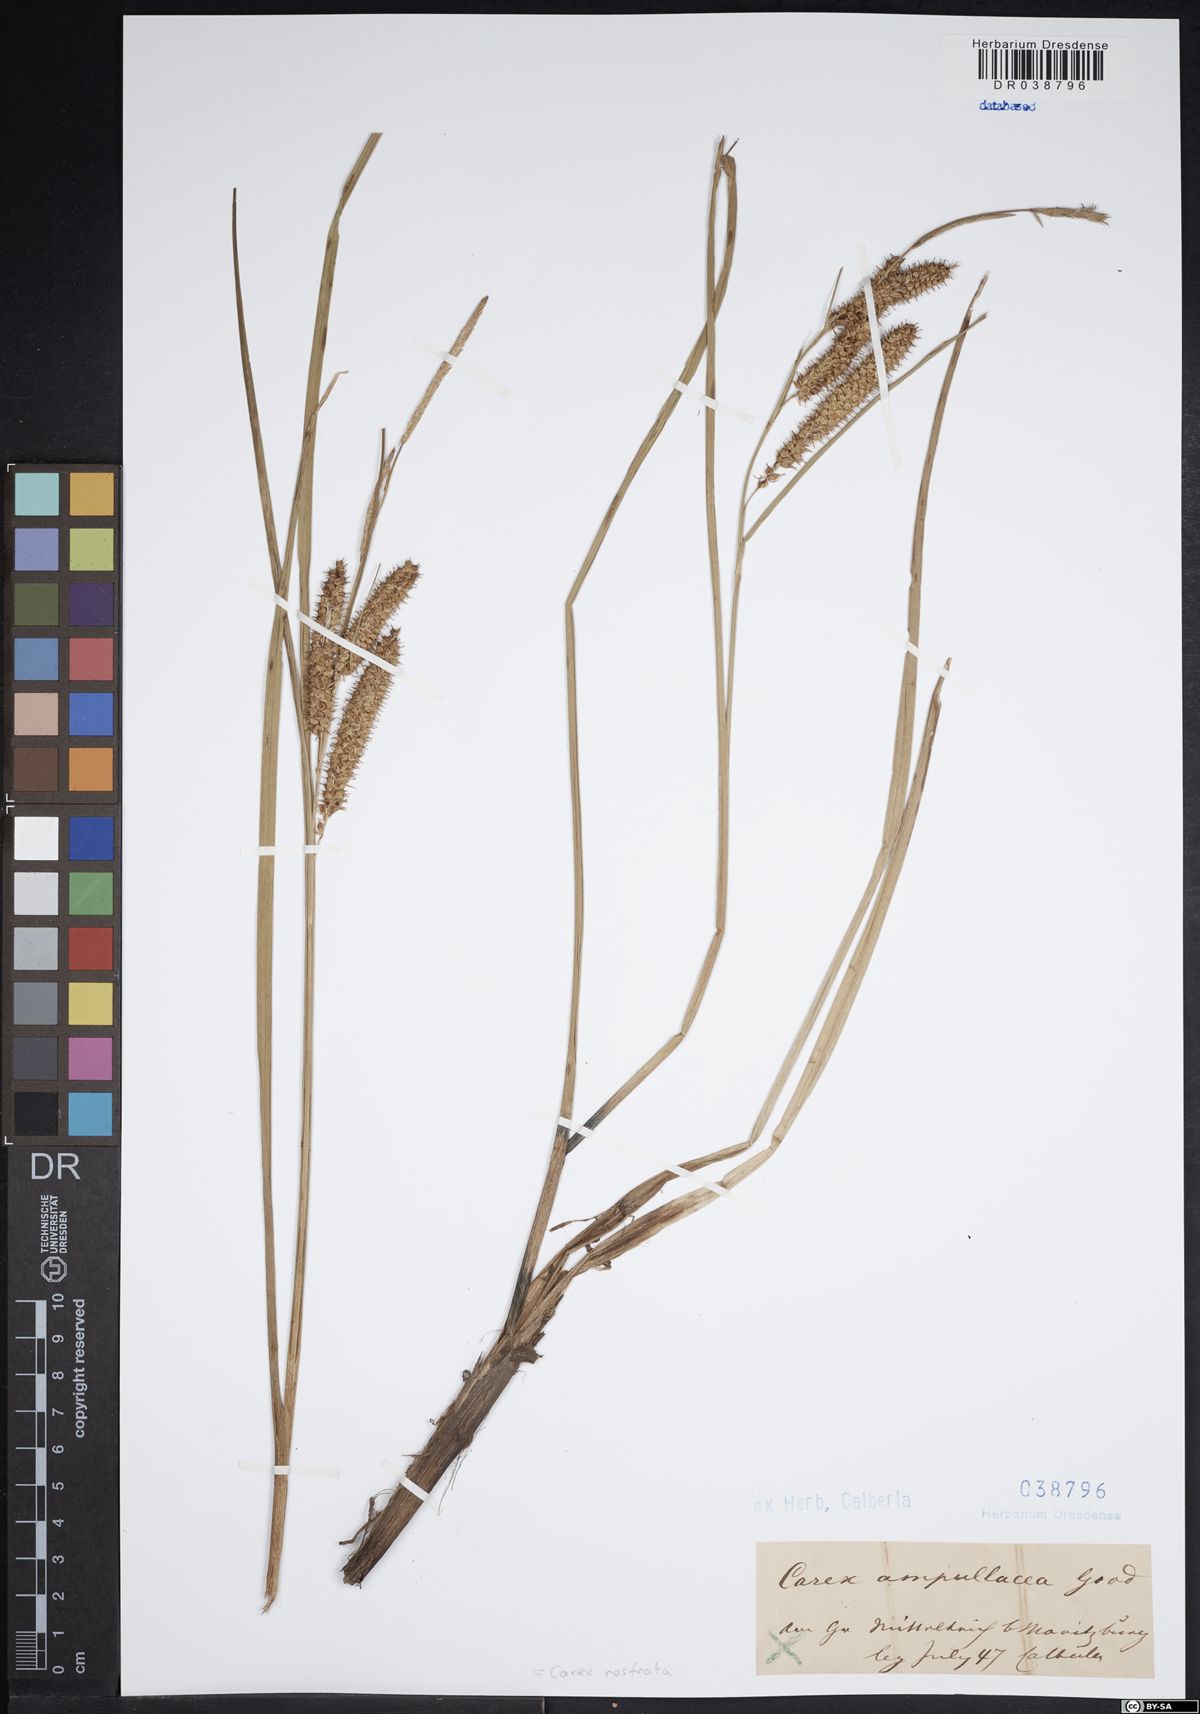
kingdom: Plantae
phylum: Tracheophyta
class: Liliopsida
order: Poales
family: Cyperaceae
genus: Carex
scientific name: Carex rostrata
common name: Bottle sedge
